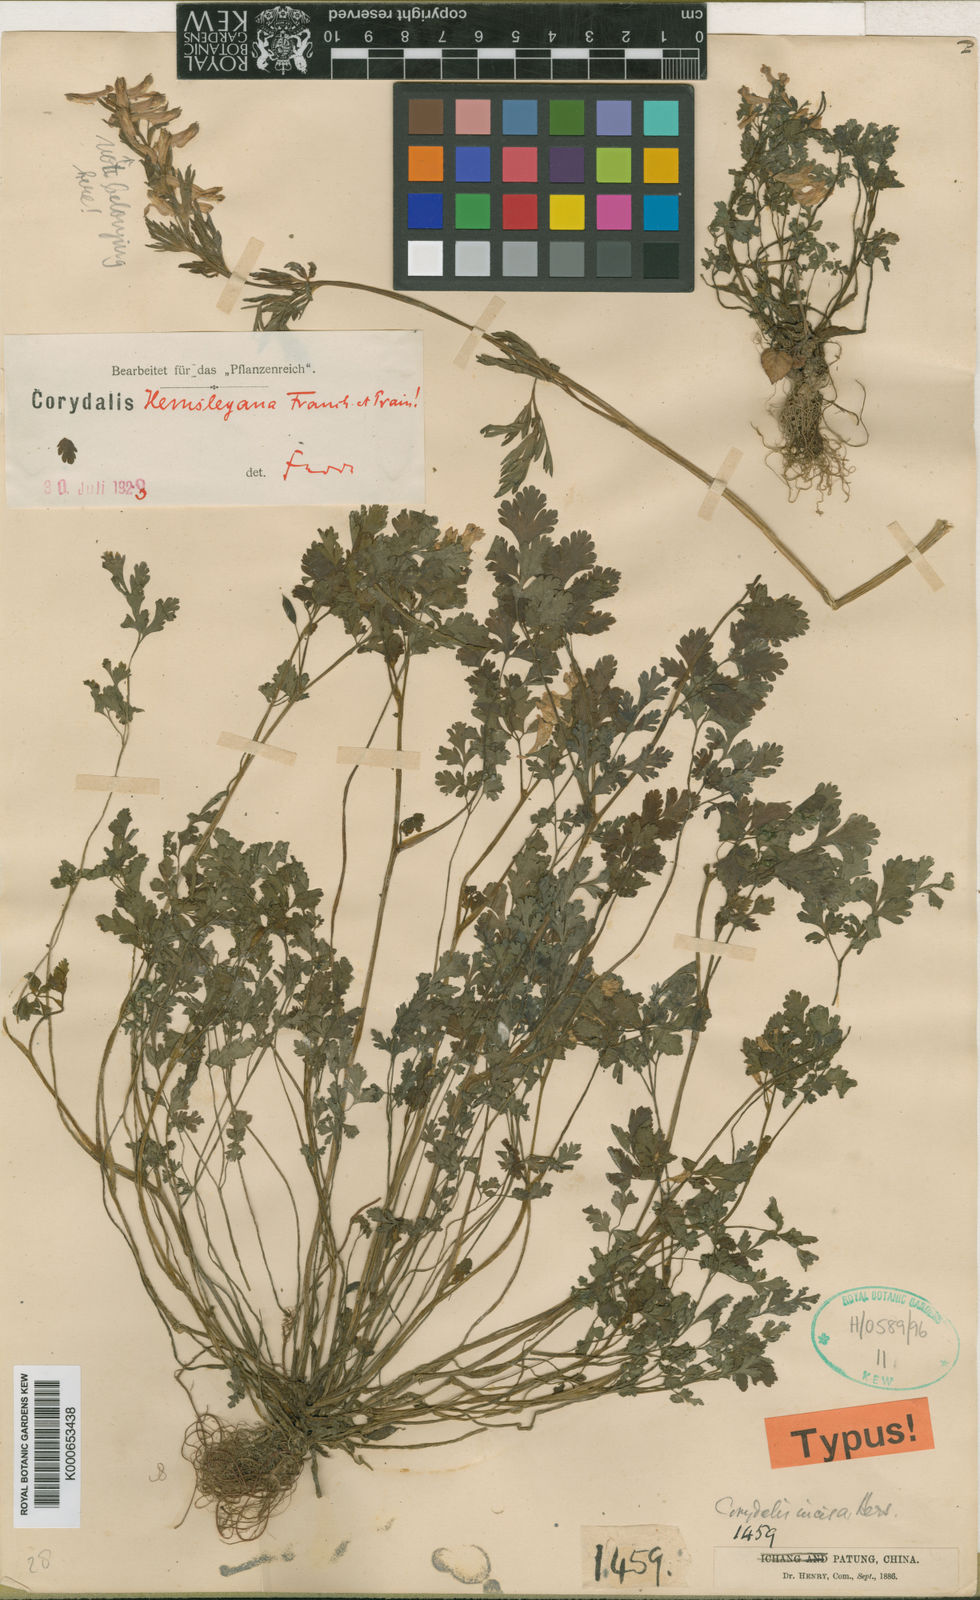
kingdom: Plantae
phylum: Tracheophyta
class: Magnoliopsida
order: Ranunculales
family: Papaveraceae
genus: Corydalis
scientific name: Corydalis hemsleyana
